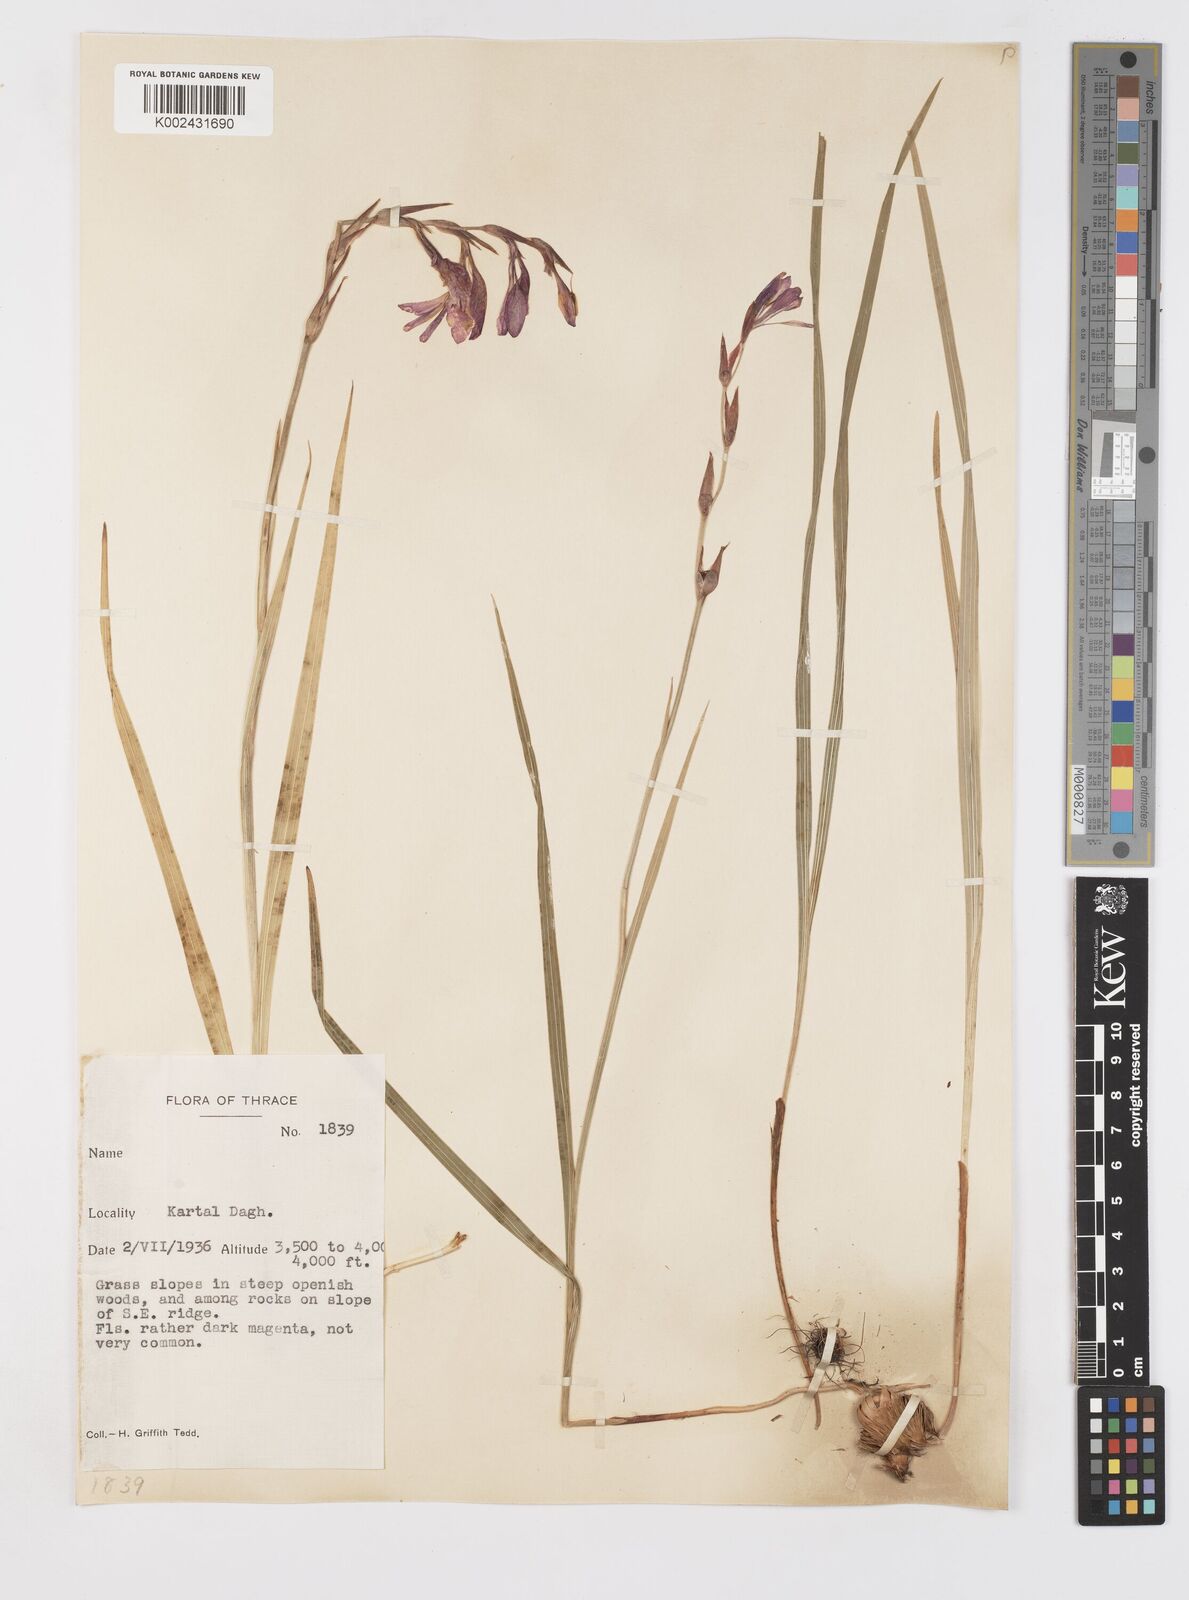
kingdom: Plantae
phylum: Tracheophyta
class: Liliopsida
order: Asparagales
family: Iridaceae
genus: Gladiolus
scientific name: Gladiolus illyricus
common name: Wild gladiolus
